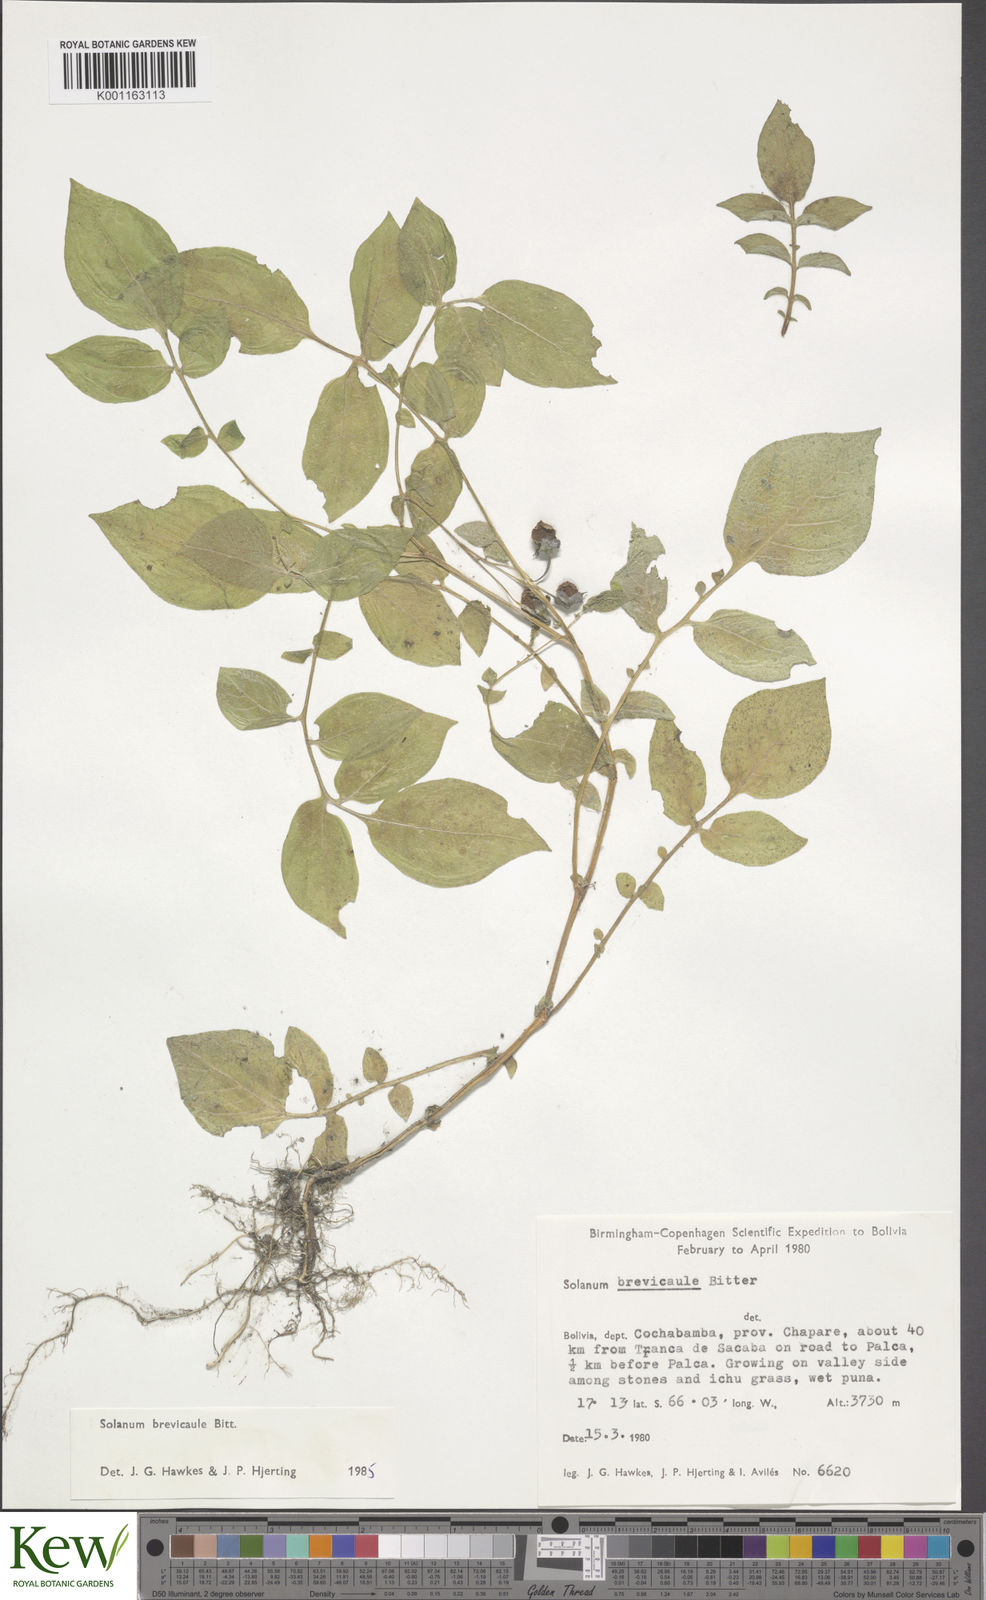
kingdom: Plantae
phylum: Tracheophyta
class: Magnoliopsida
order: Solanales
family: Solanaceae
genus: Solanum
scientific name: Solanum brevicaule
